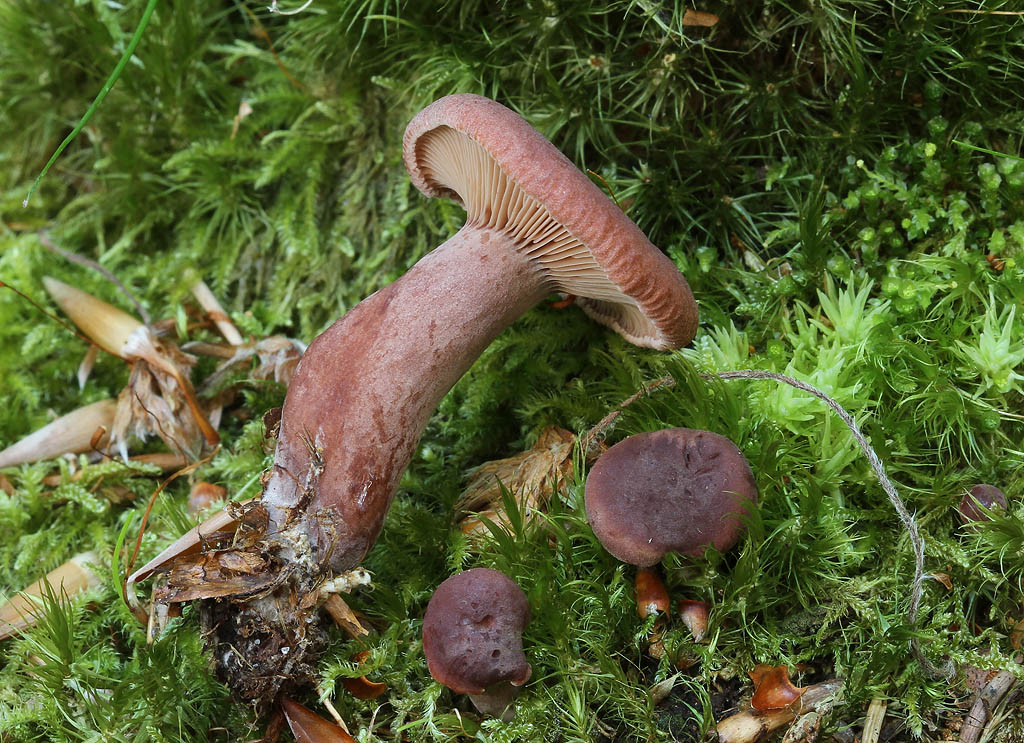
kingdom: Fungi
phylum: Basidiomycota
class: Agaricomycetes
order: Russulales
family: Russulaceae
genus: Lactarius
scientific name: Lactarius camphoratus
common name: kamfer-mælkehat
